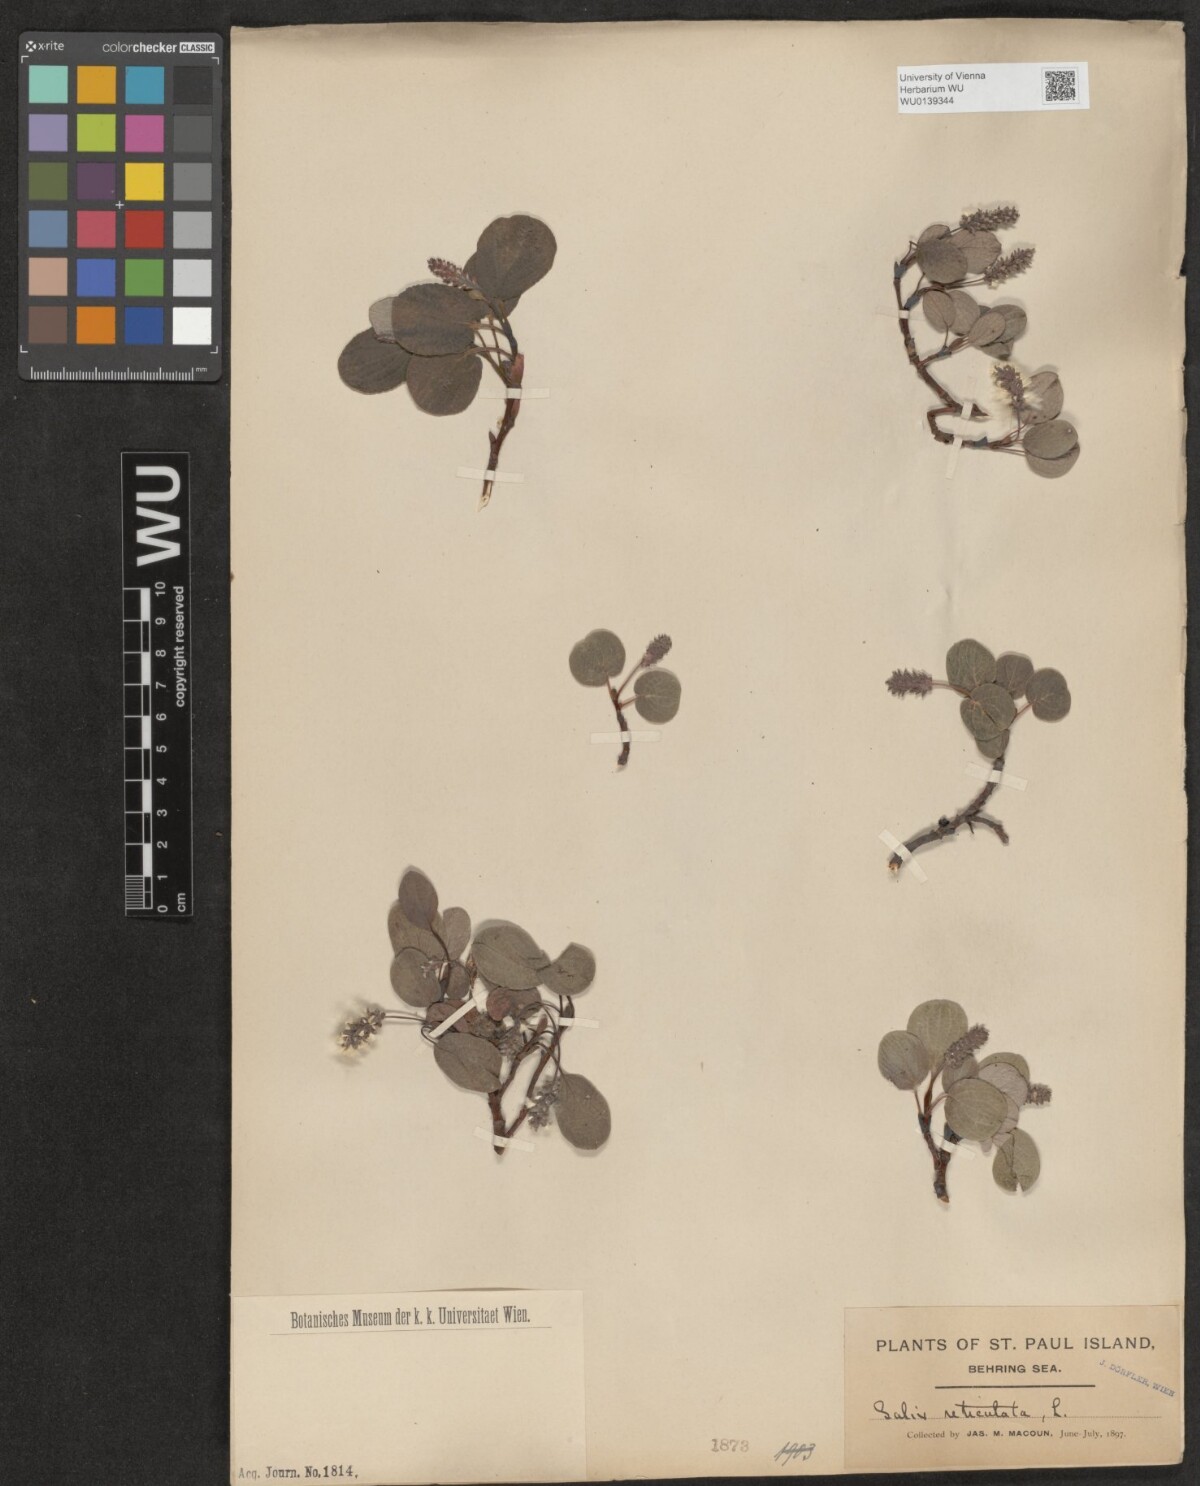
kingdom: Plantae
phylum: Tracheophyta
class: Magnoliopsida
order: Malpighiales
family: Salicaceae
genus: Salix
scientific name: Salix reticulata
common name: Net-leaved willow
